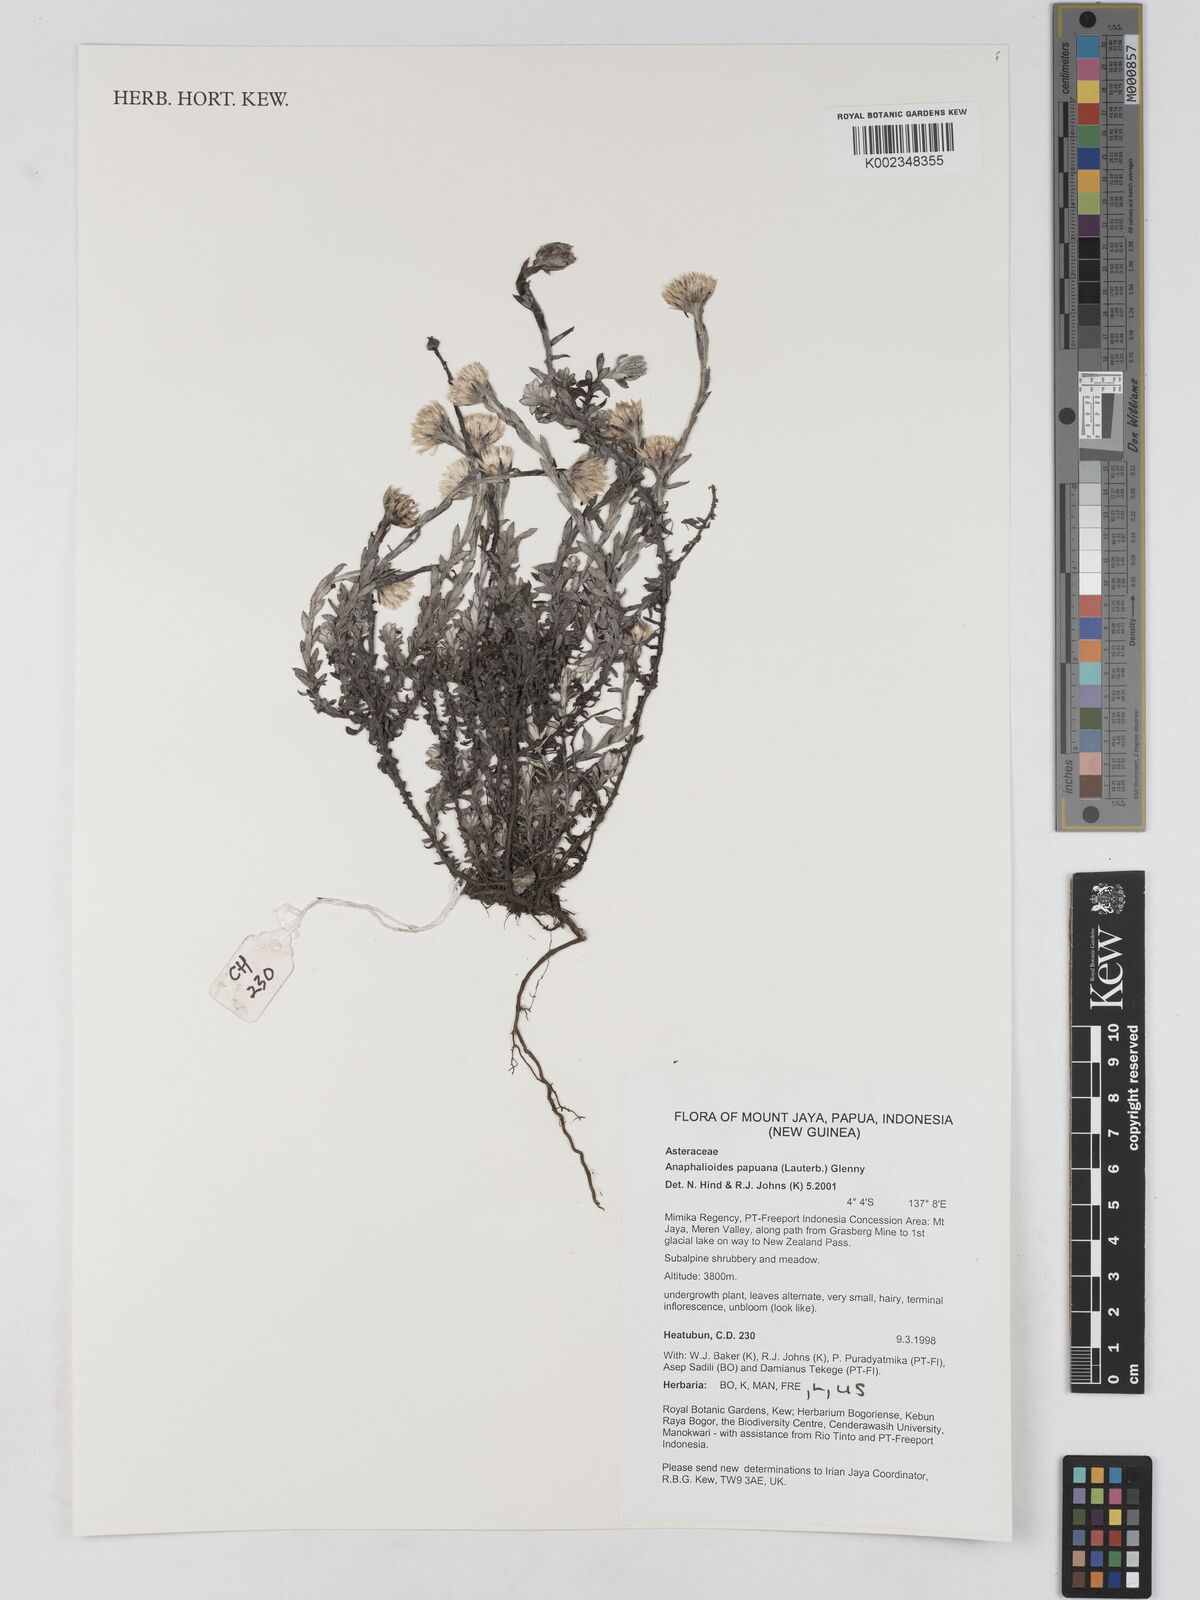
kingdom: Plantae
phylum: Tracheophyta
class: Magnoliopsida
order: Asterales
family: Asteraceae
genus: Anaphalioides
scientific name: Anaphalioides papuana
